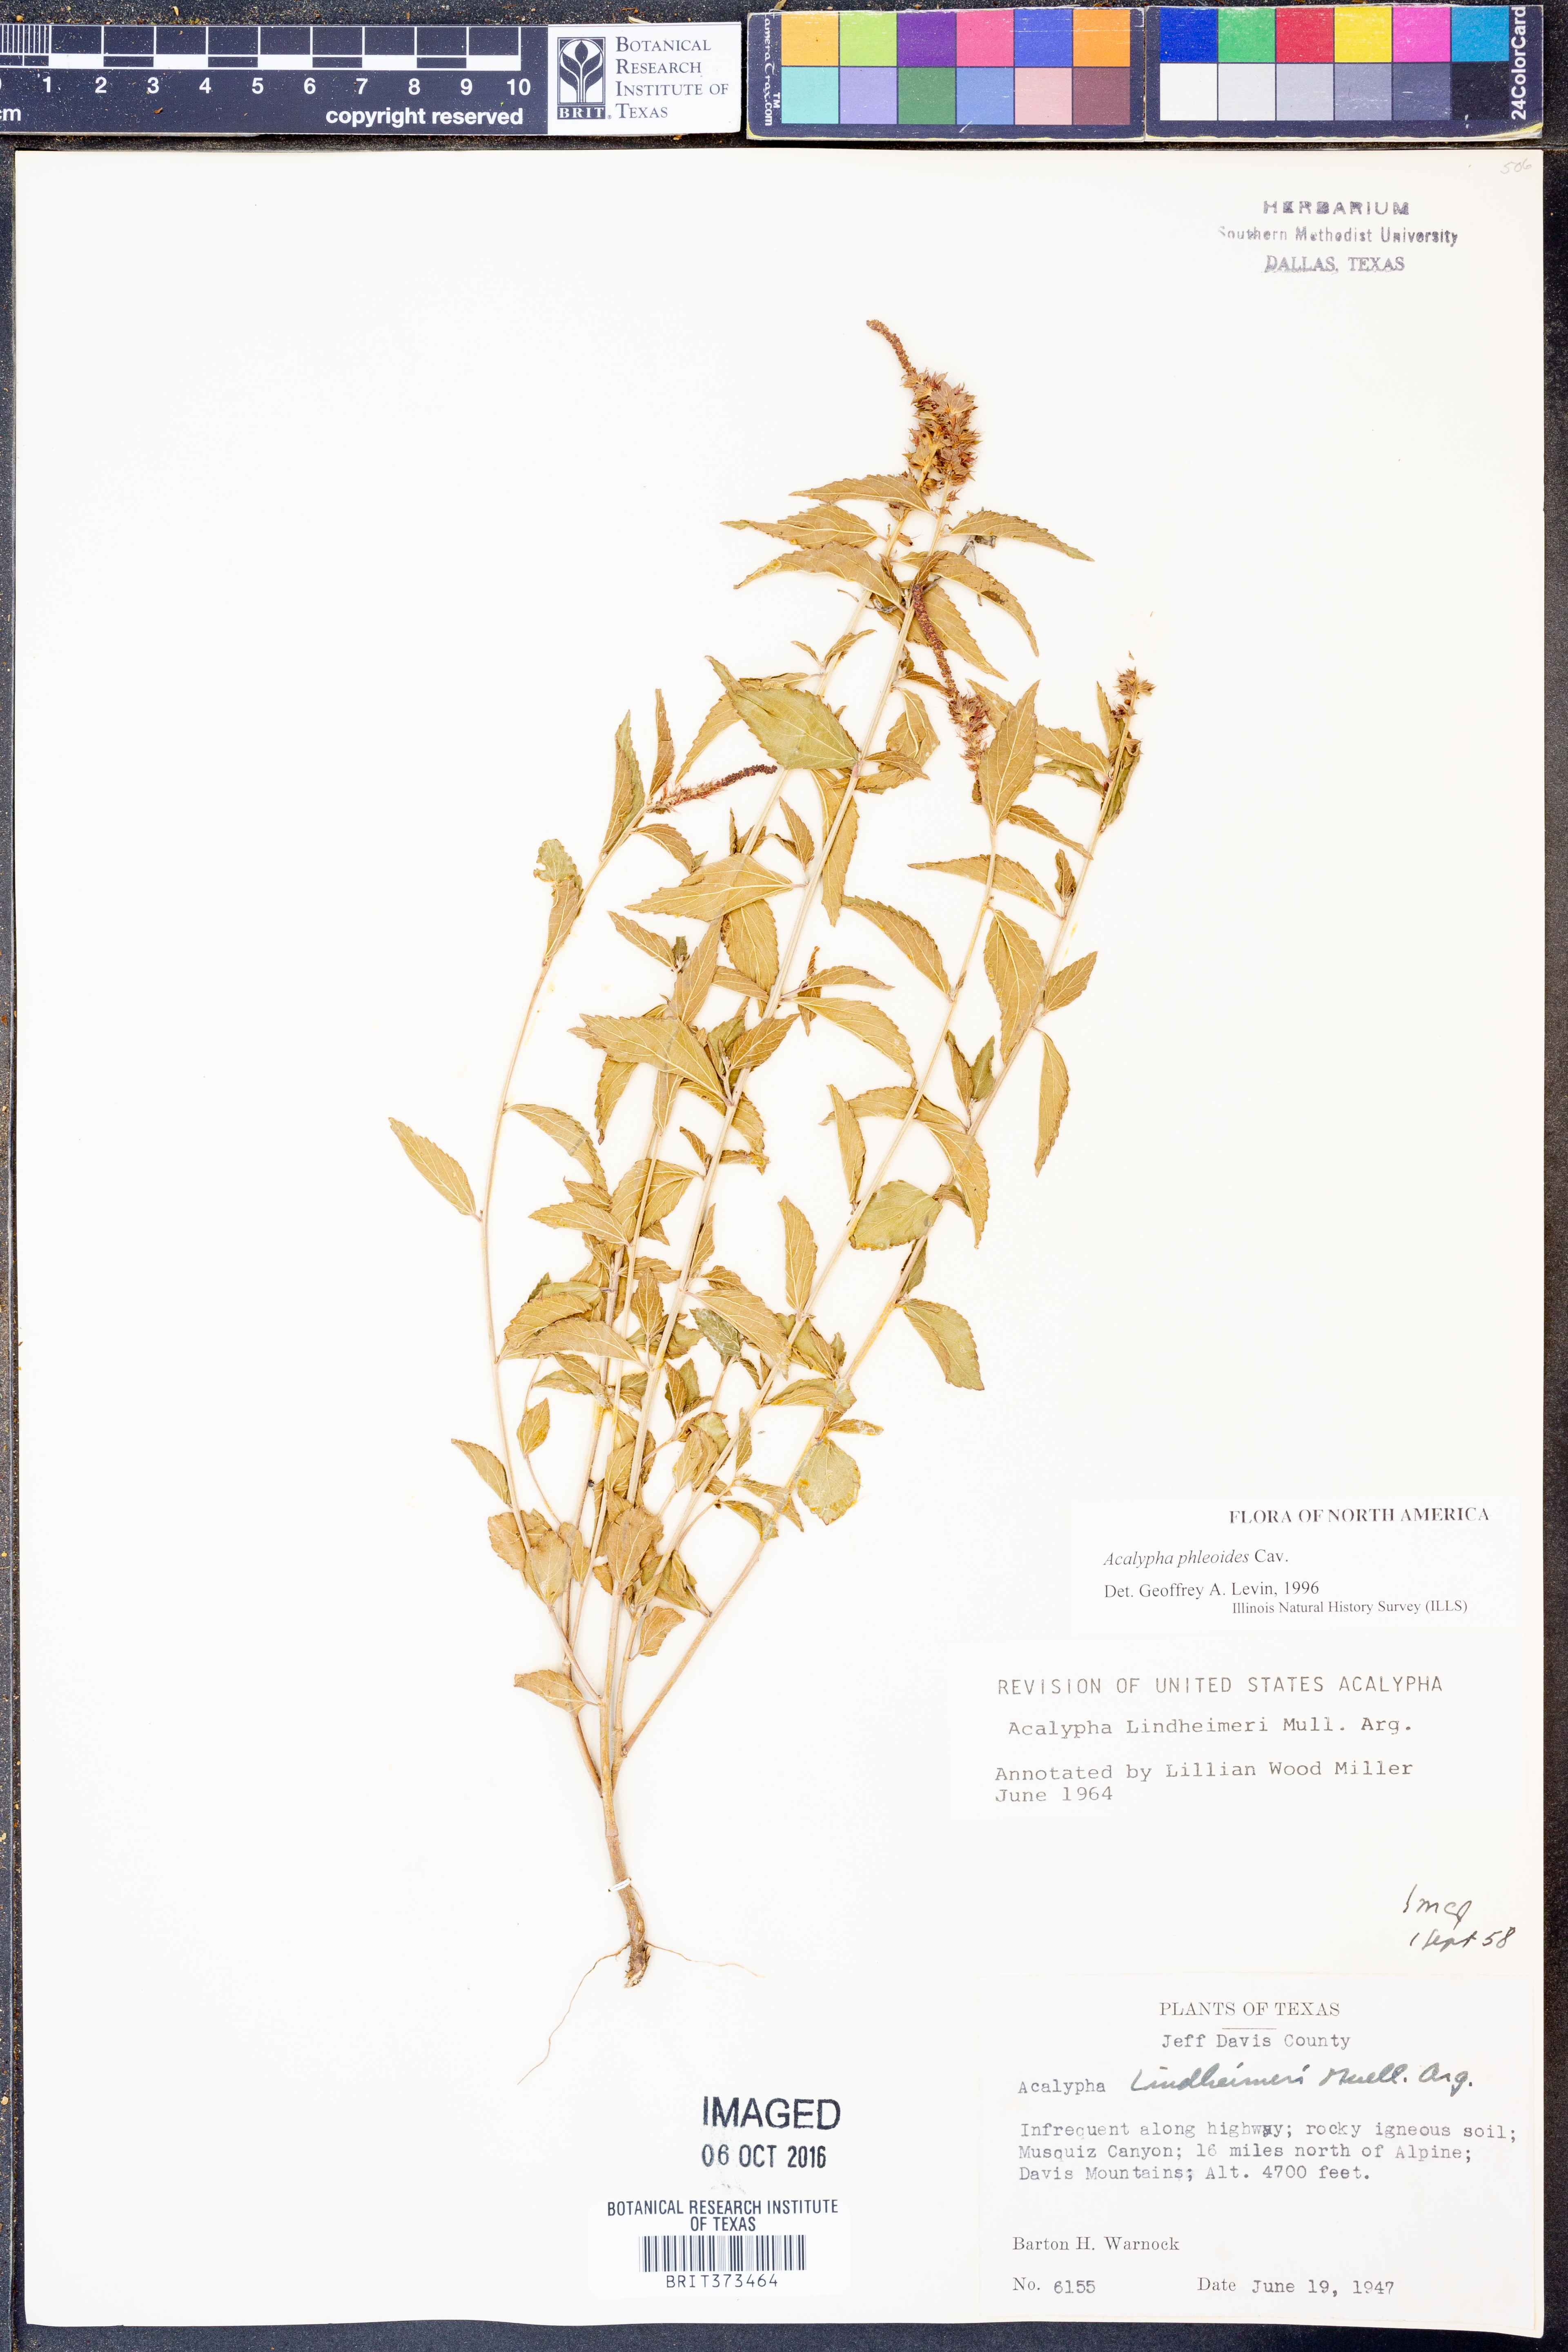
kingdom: Plantae
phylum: Tracheophyta
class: Magnoliopsida
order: Malpighiales
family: Euphorbiaceae
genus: Acalypha
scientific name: Acalypha phleoides
